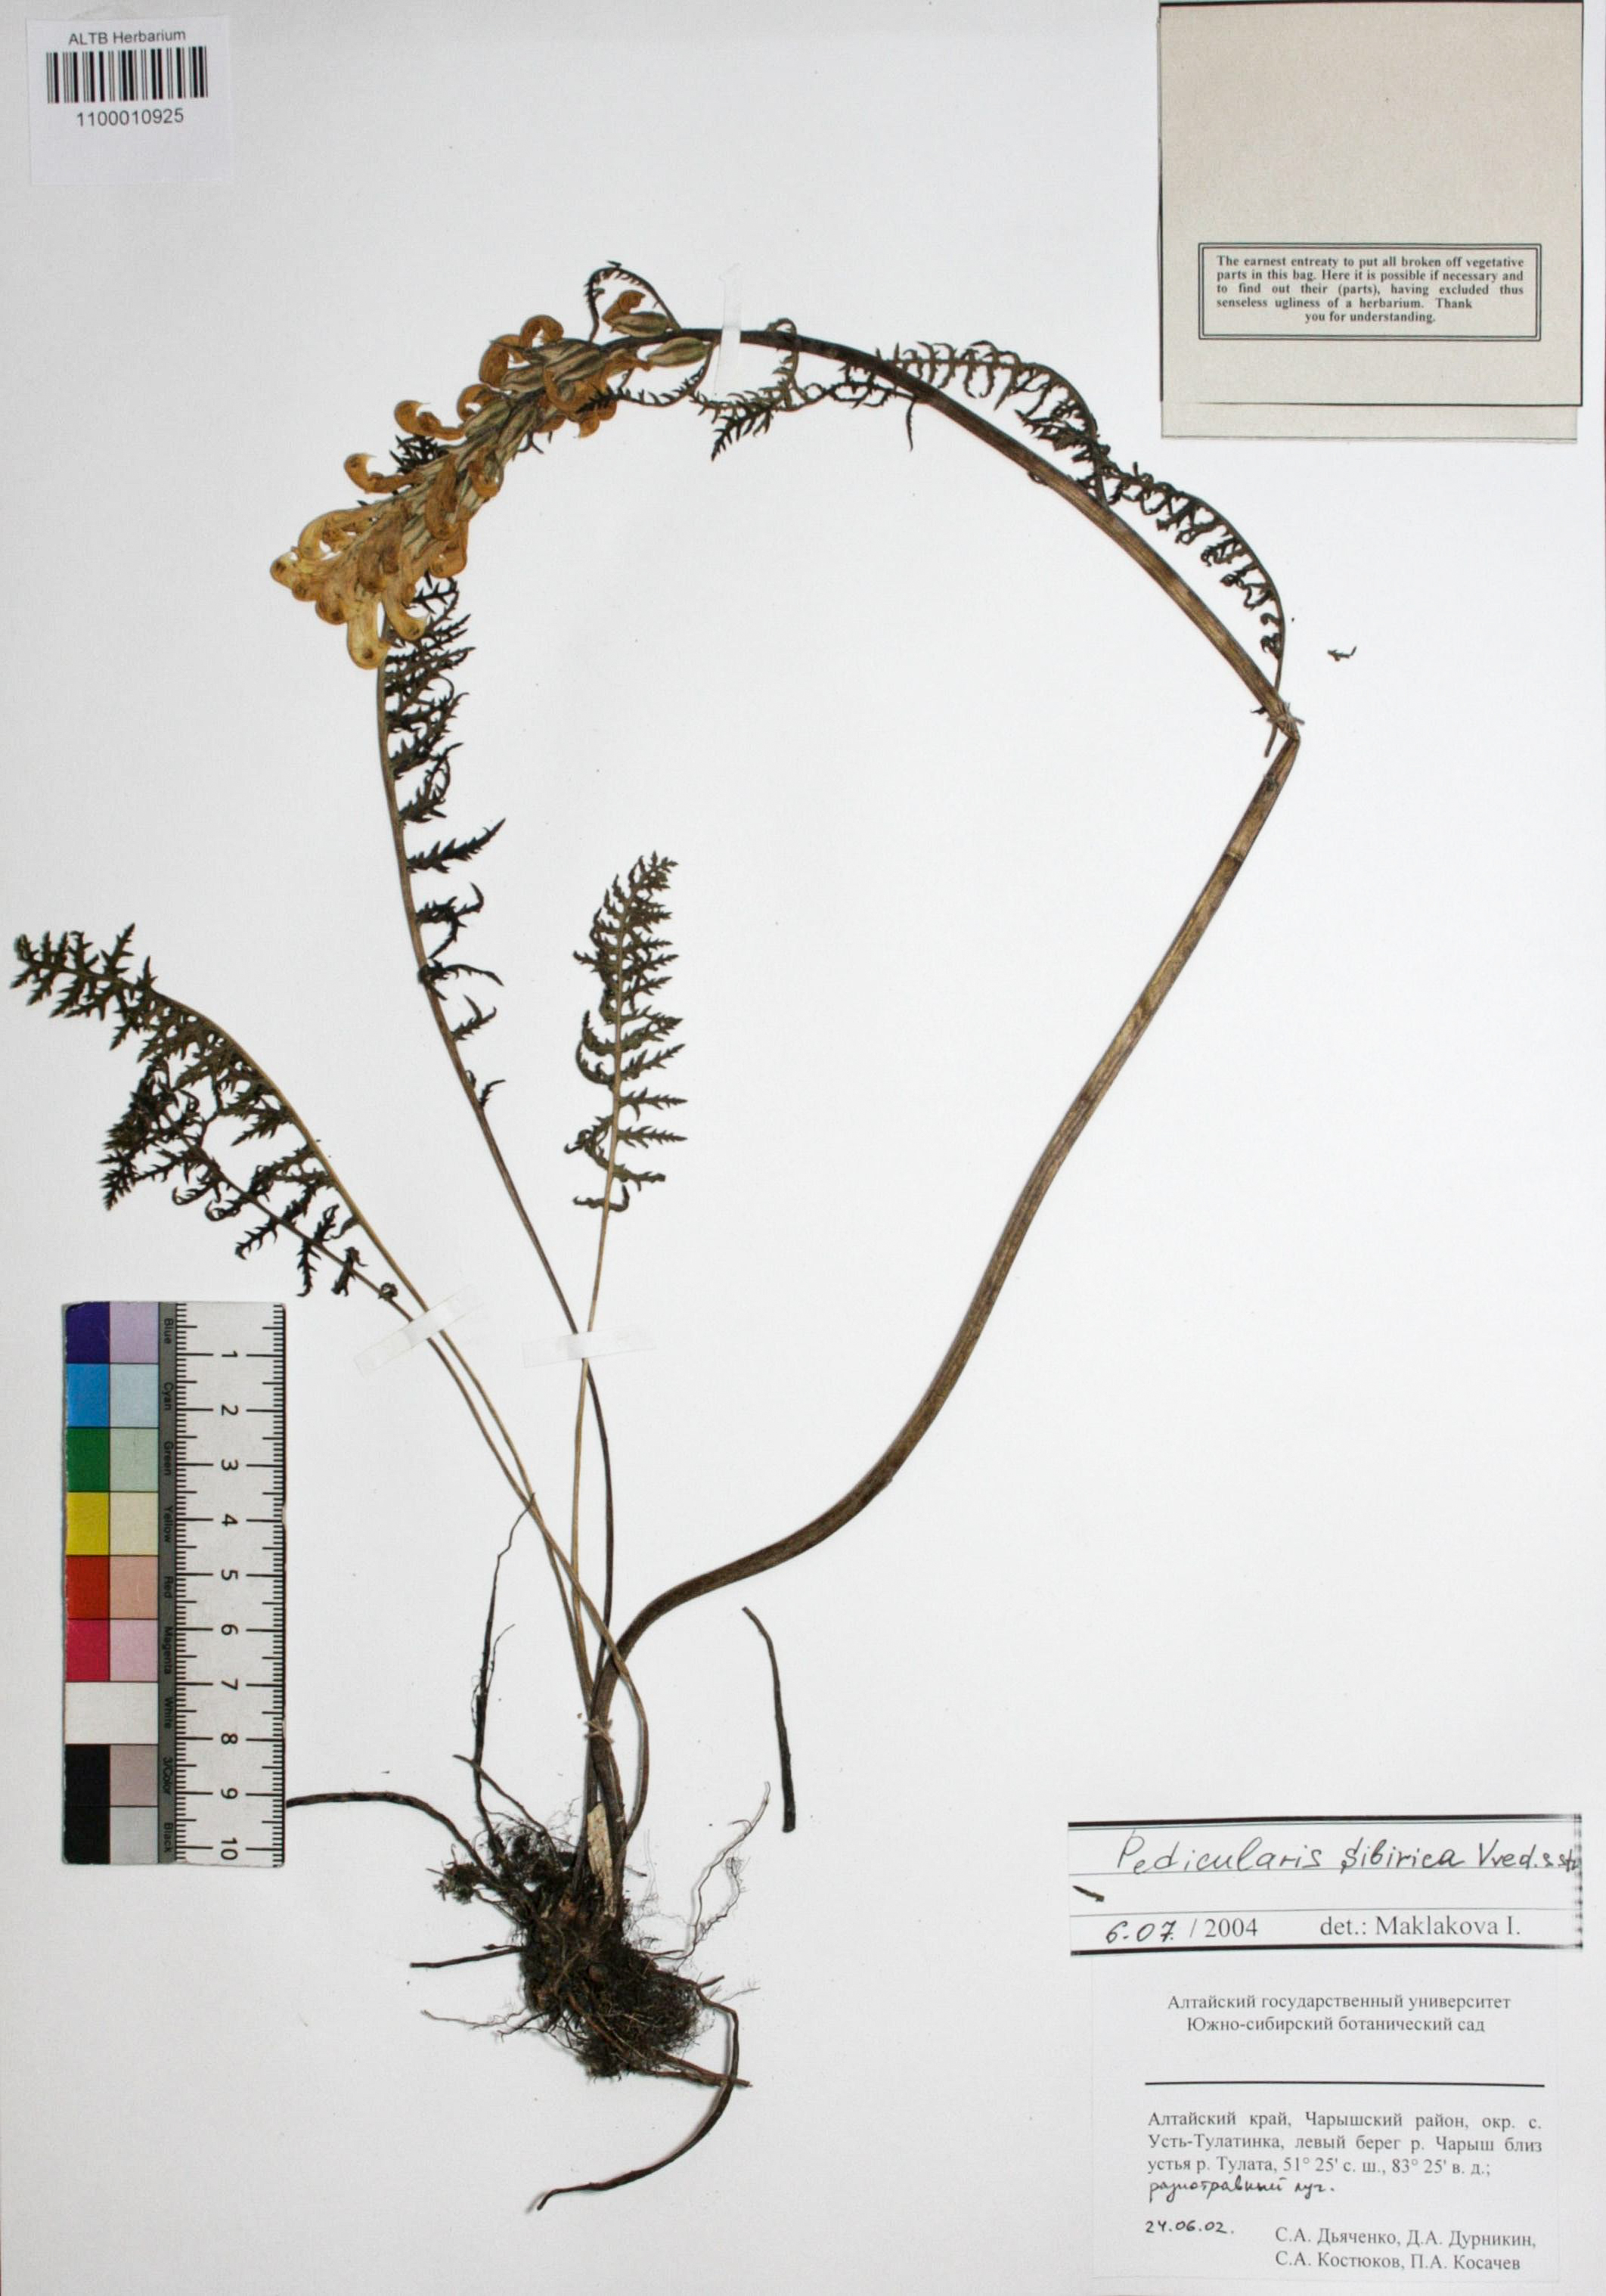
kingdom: Plantae
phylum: Tracheophyta
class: Magnoliopsida
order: Lamiales
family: Orobanchaceae
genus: Pedicularis
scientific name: Pedicularis sibirica
